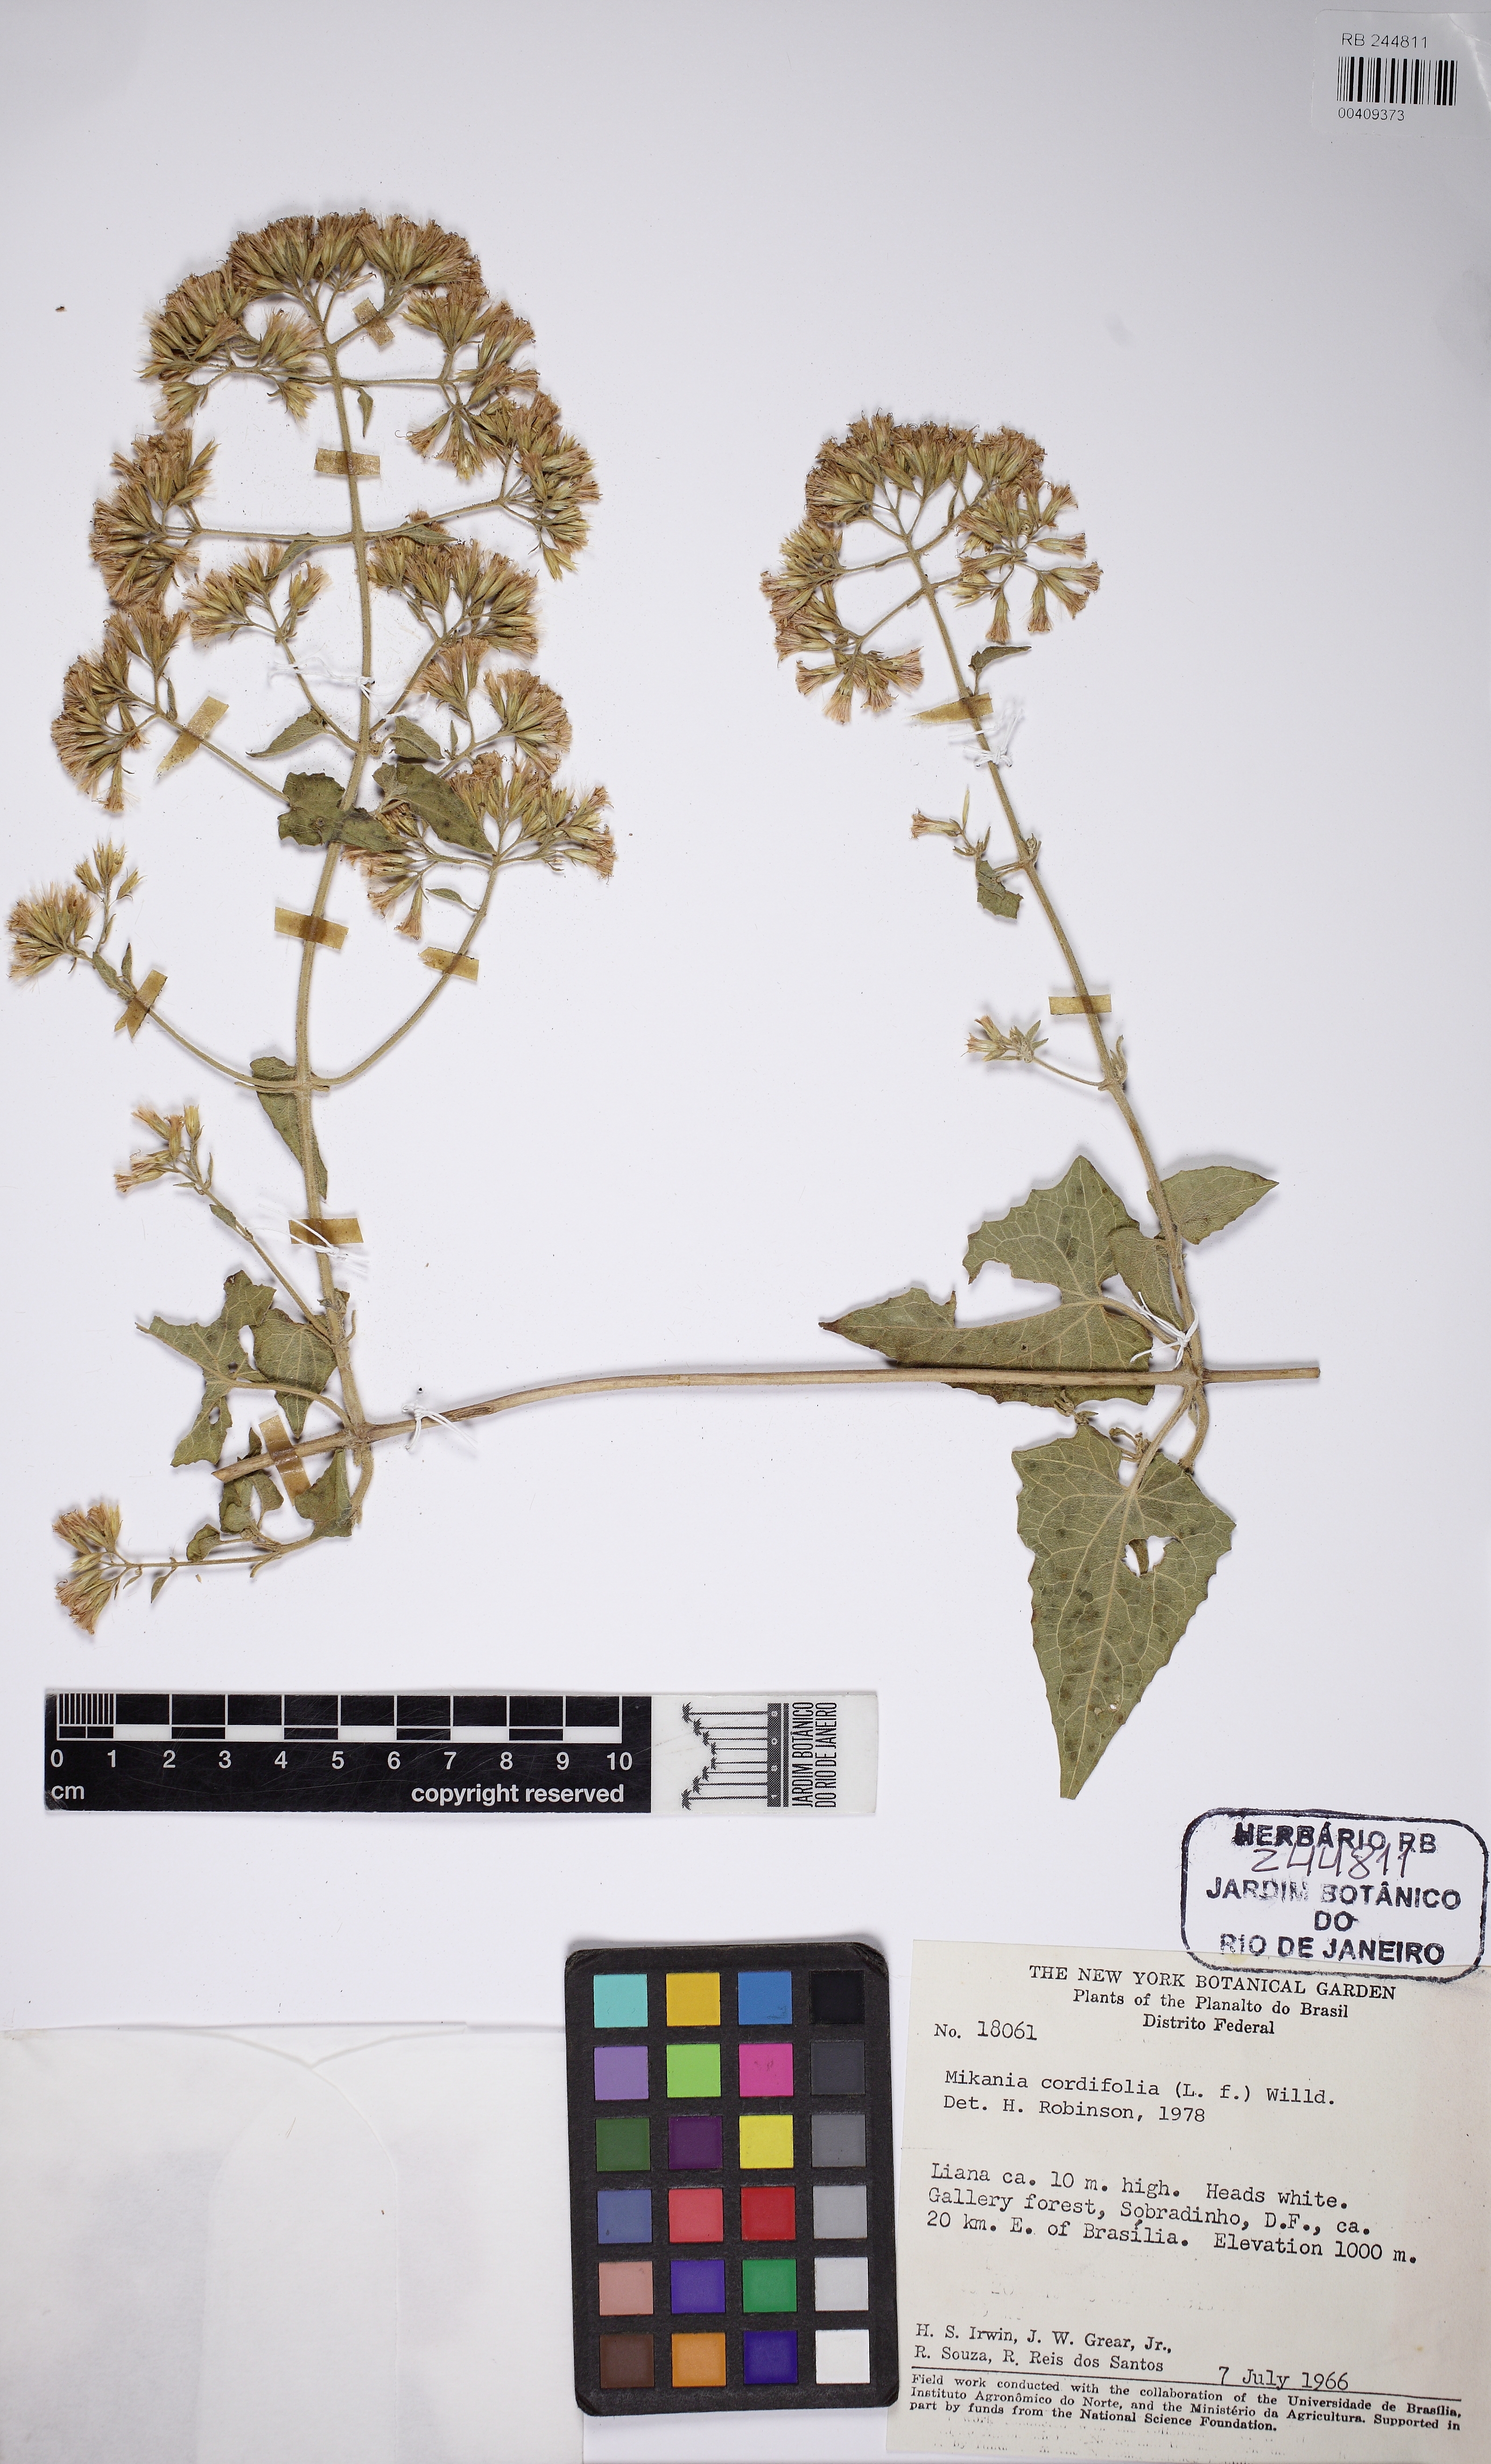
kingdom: Plantae
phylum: Tracheophyta
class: Magnoliopsida
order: Asterales
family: Asteraceae
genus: Mikania
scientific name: Mikania cordifolia
